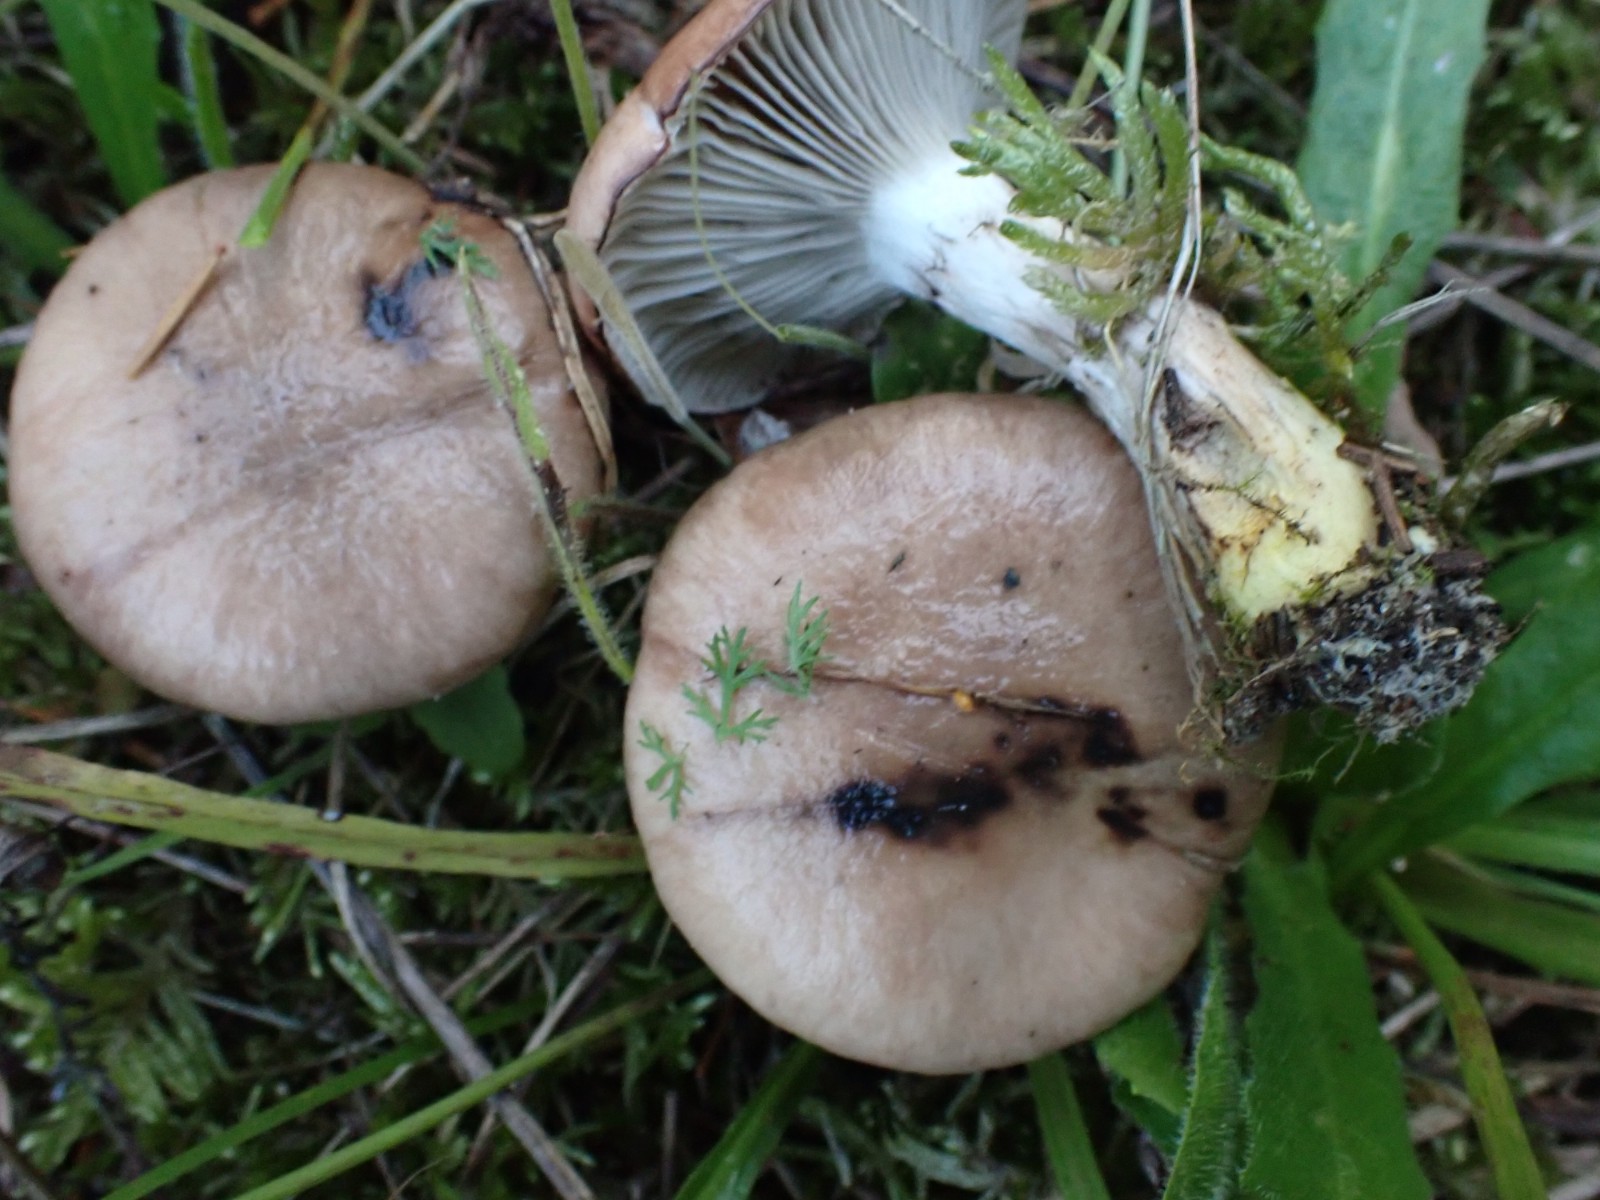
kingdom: Fungi
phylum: Basidiomycota
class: Agaricomycetes
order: Boletales
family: Gomphidiaceae
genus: Gomphidius
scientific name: Gomphidius glutinosus
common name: grå slimslør
